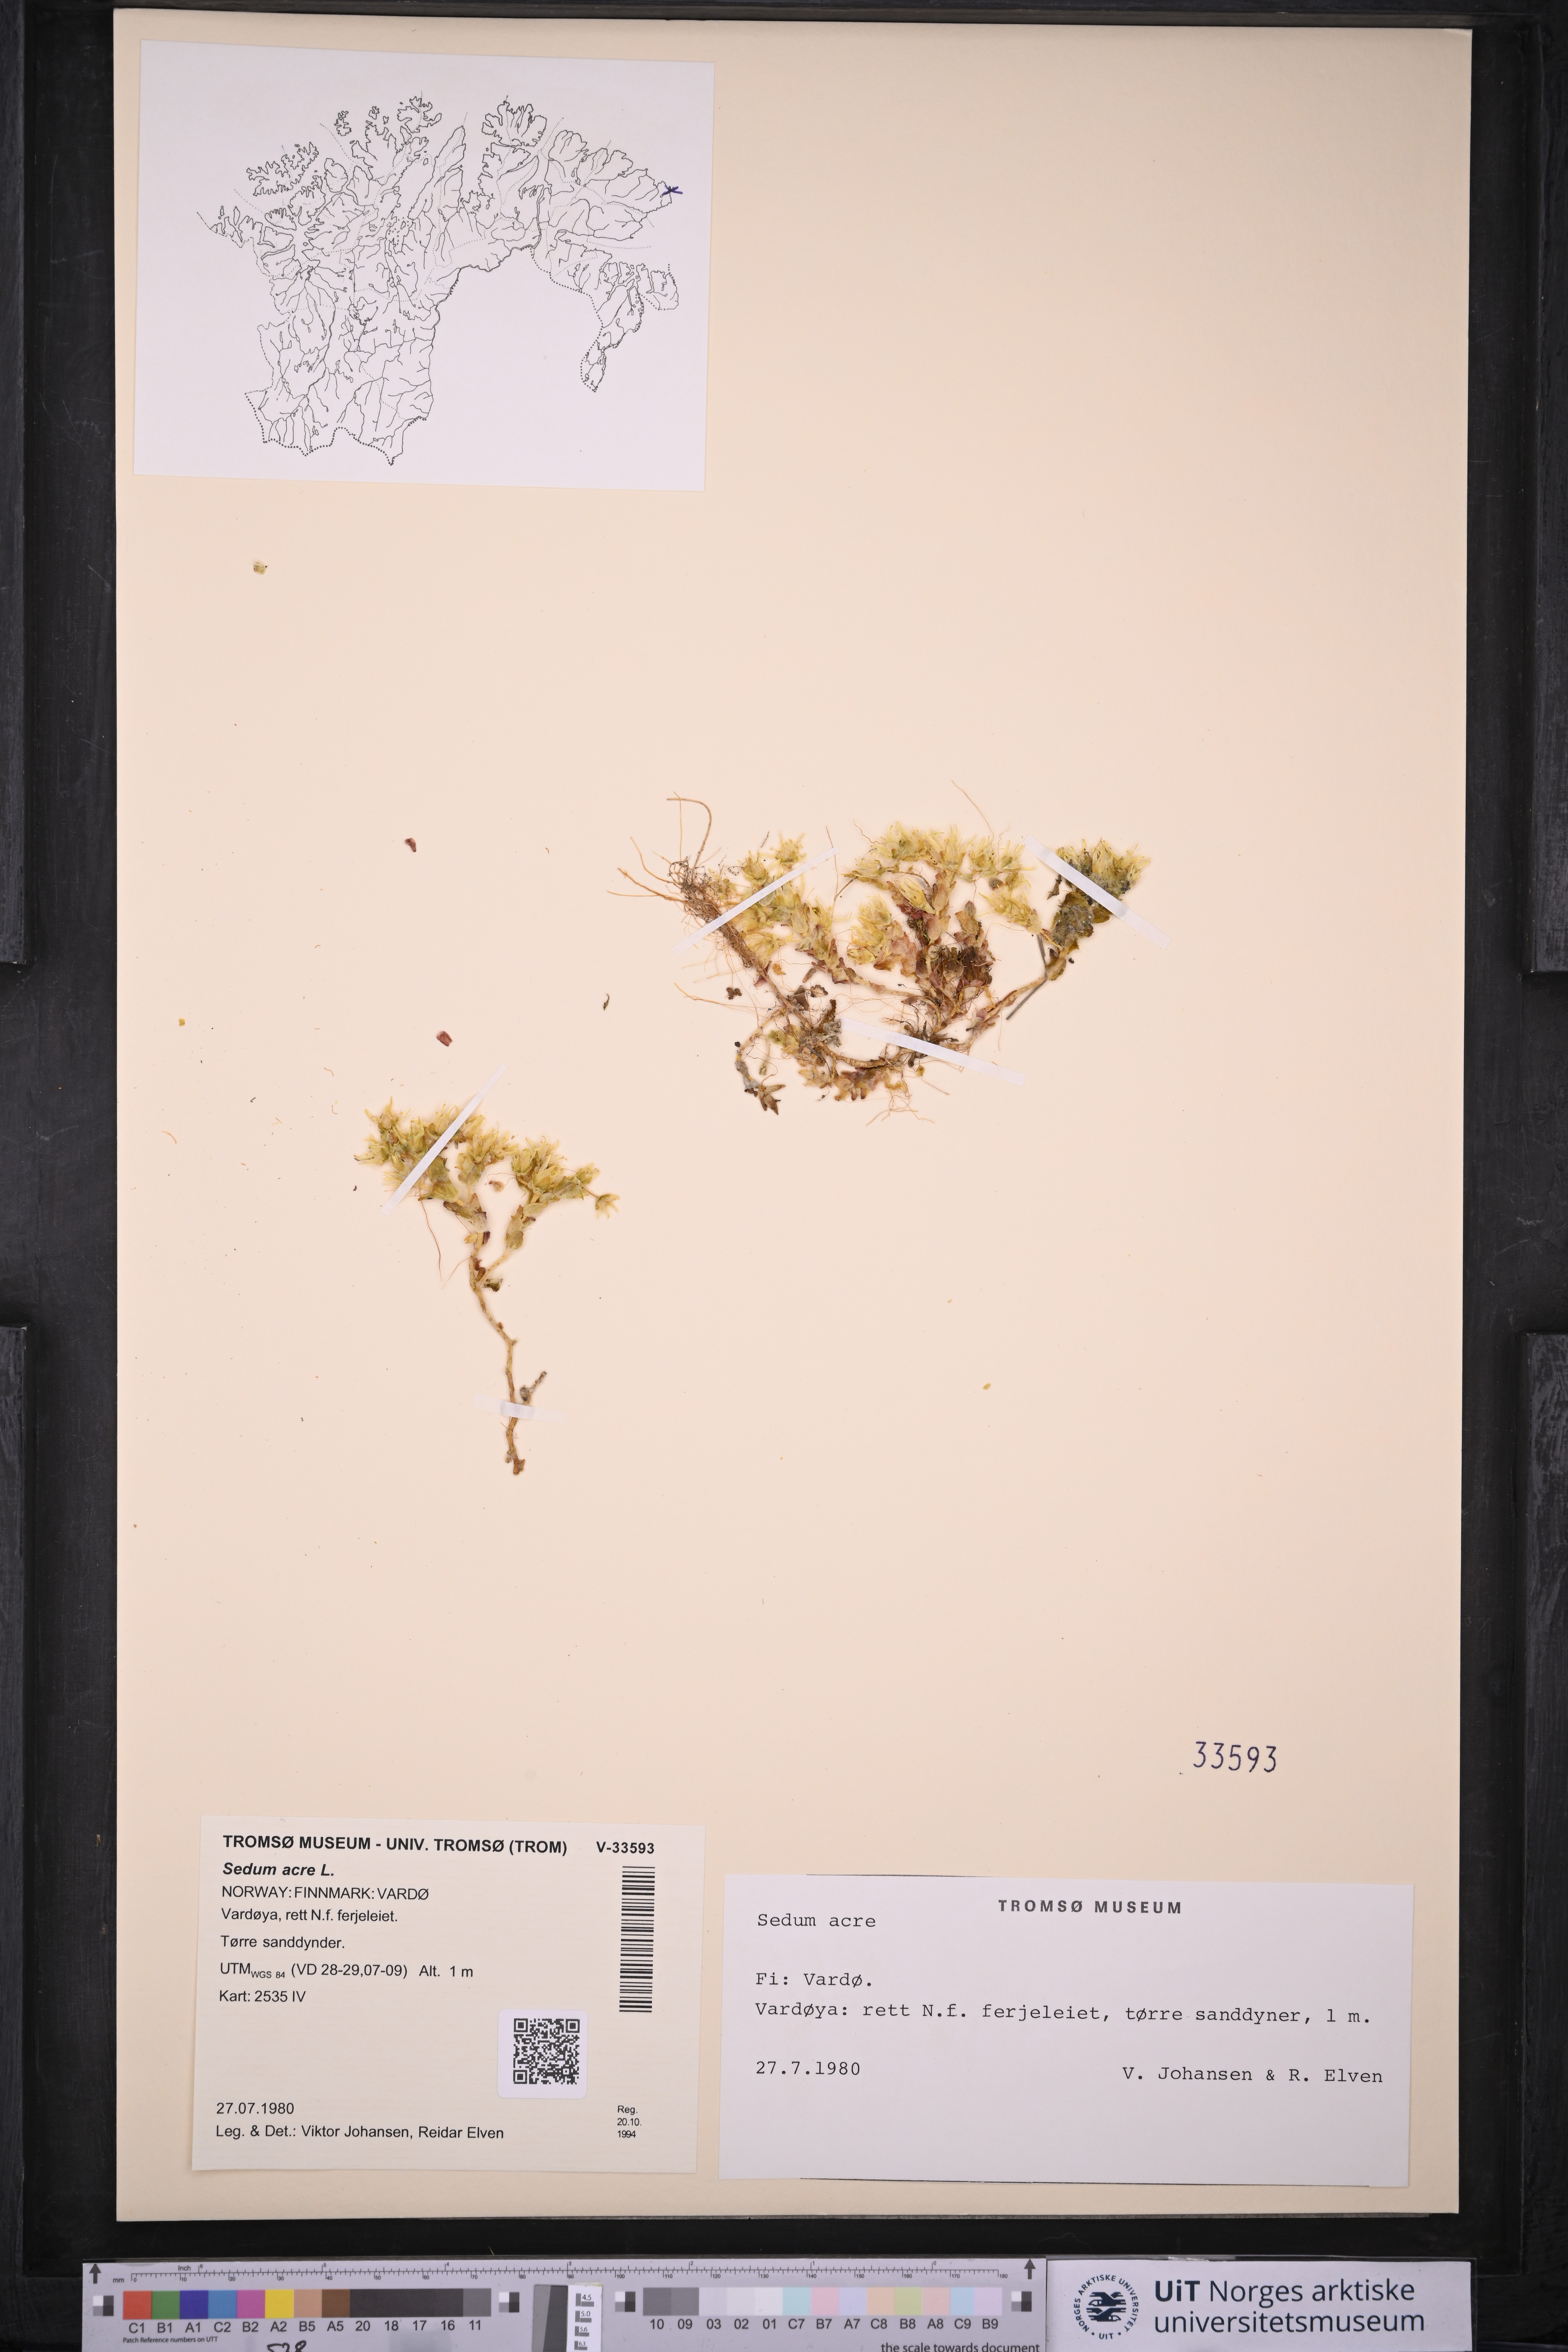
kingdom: Plantae
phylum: Tracheophyta
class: Magnoliopsida
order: Saxifragales
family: Crassulaceae
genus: Sedum
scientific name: Sedum acre
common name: Biting stonecrop
